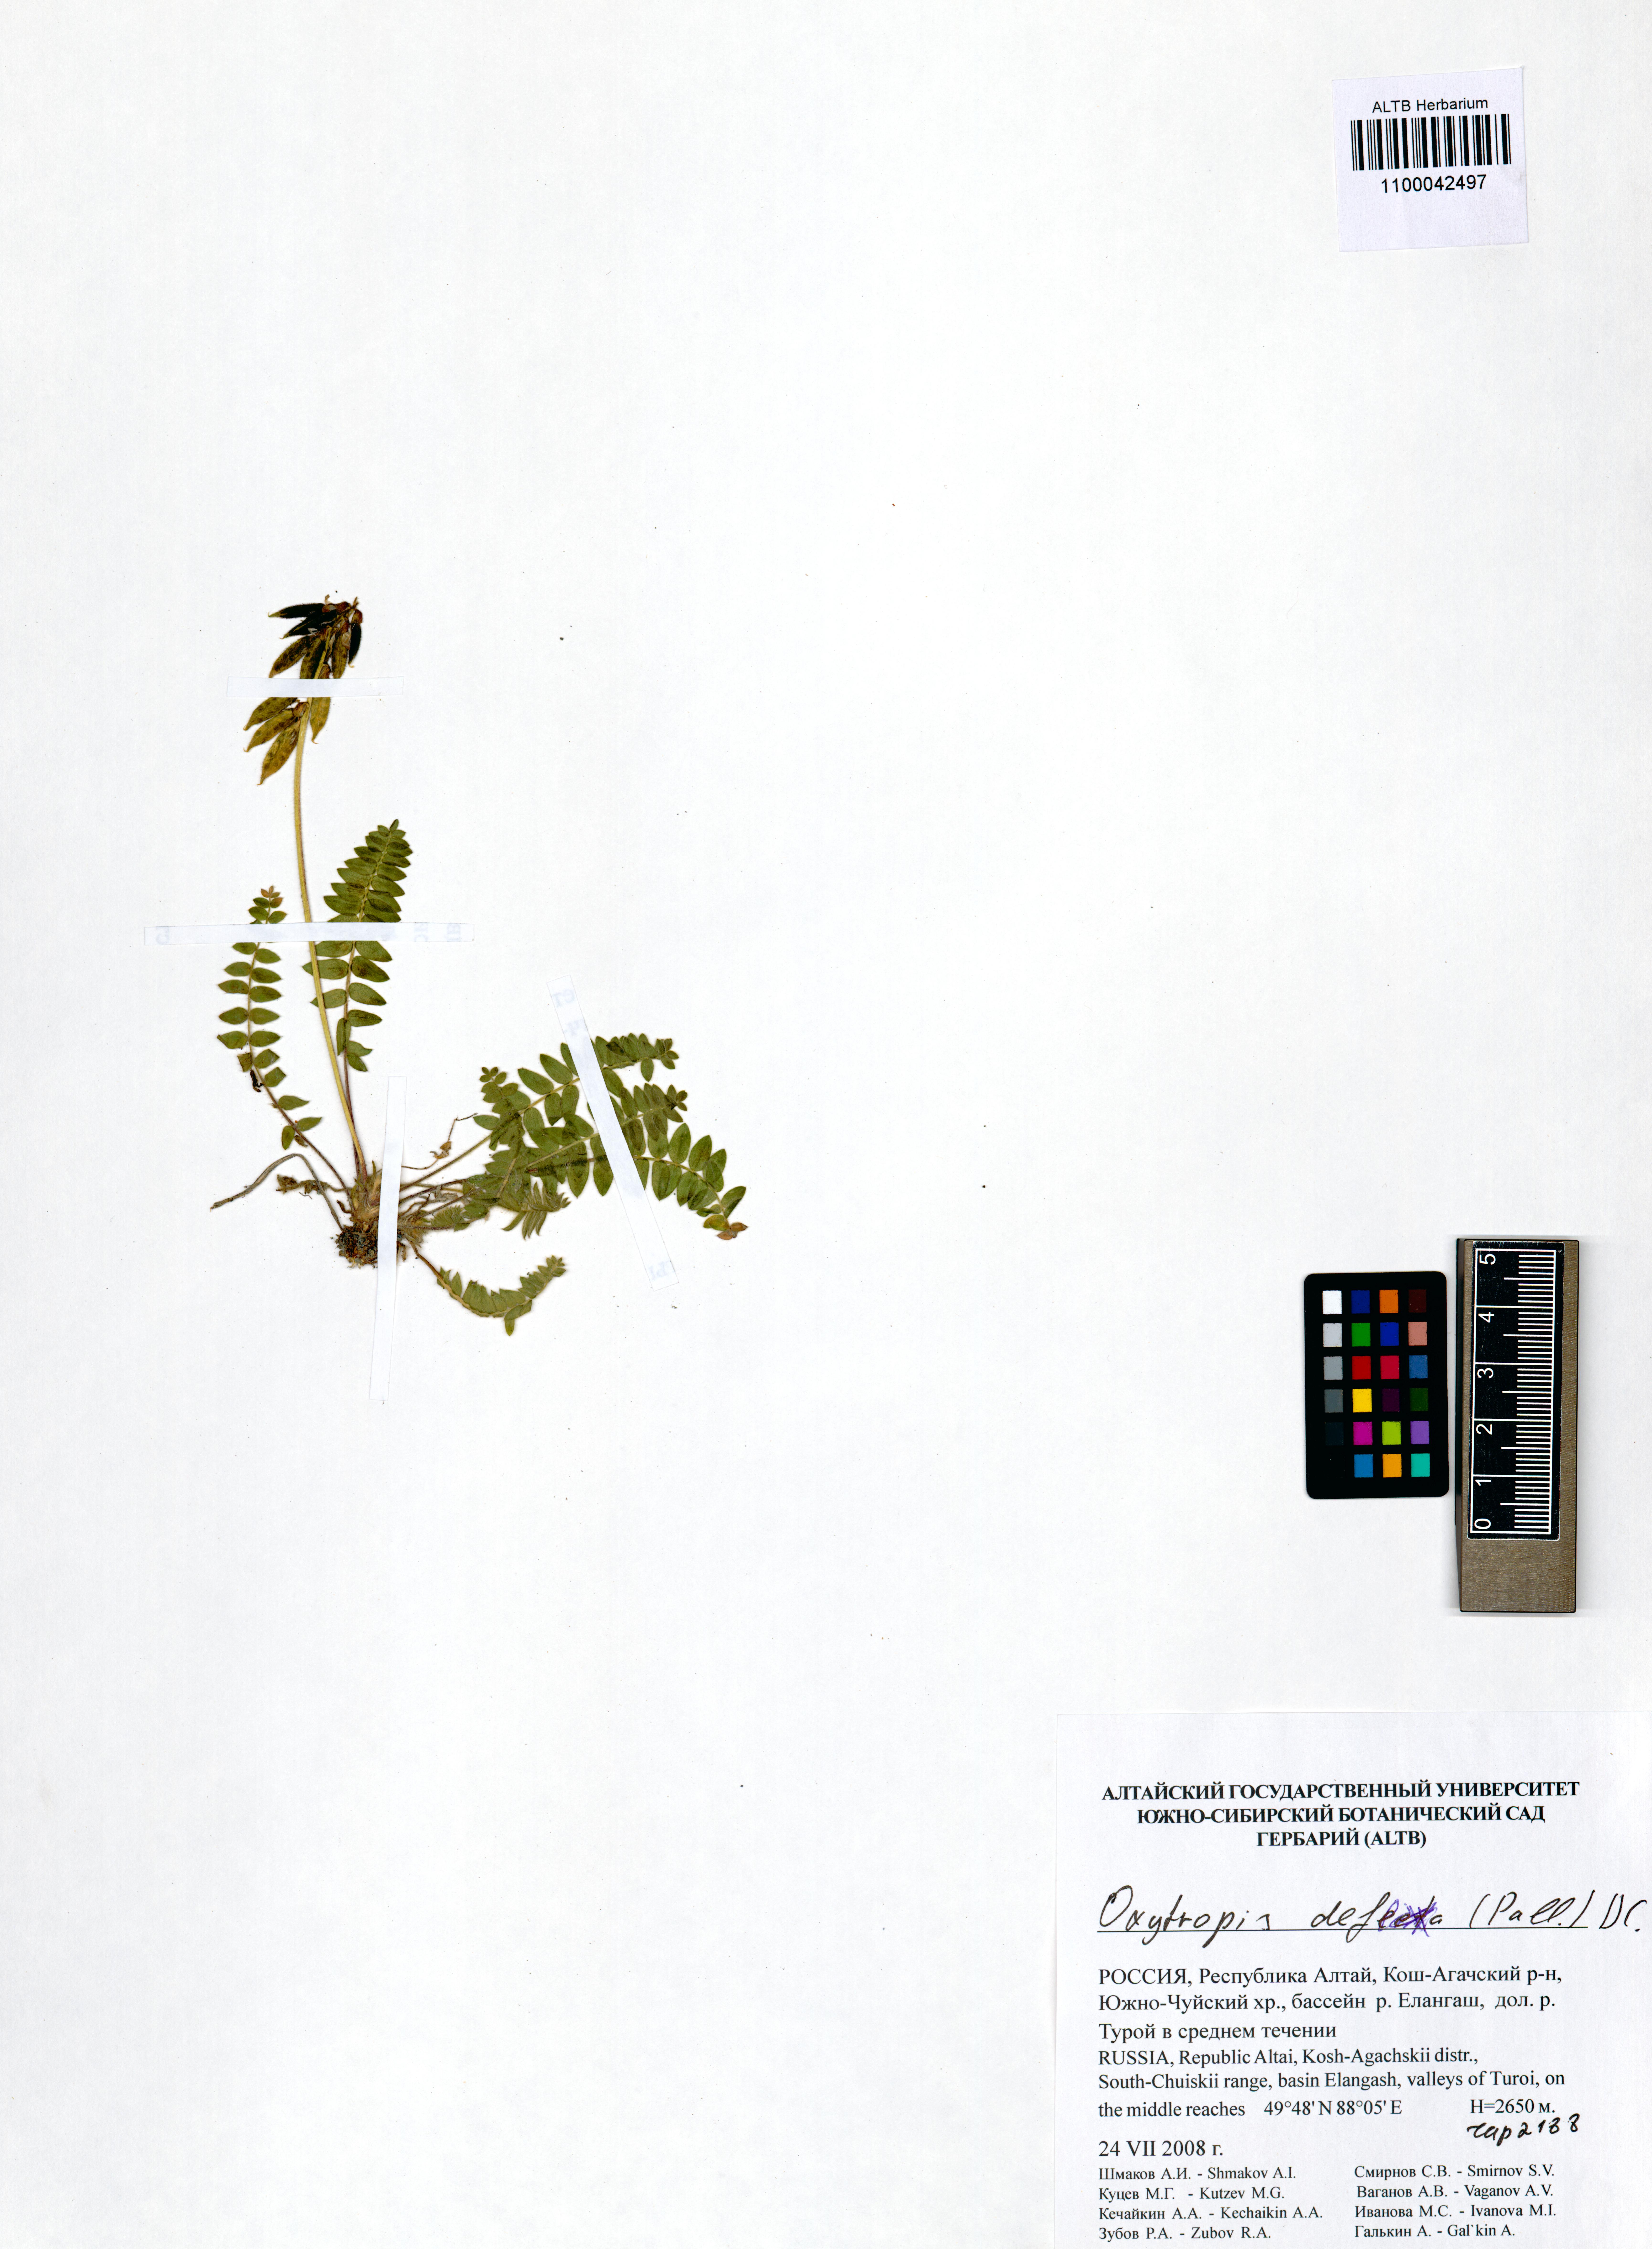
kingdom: Plantae
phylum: Tracheophyta
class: Magnoliopsida
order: Fabales
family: Fabaceae
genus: Oxytropis
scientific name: Oxytropis deflexa
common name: Stemmed oxytrope
